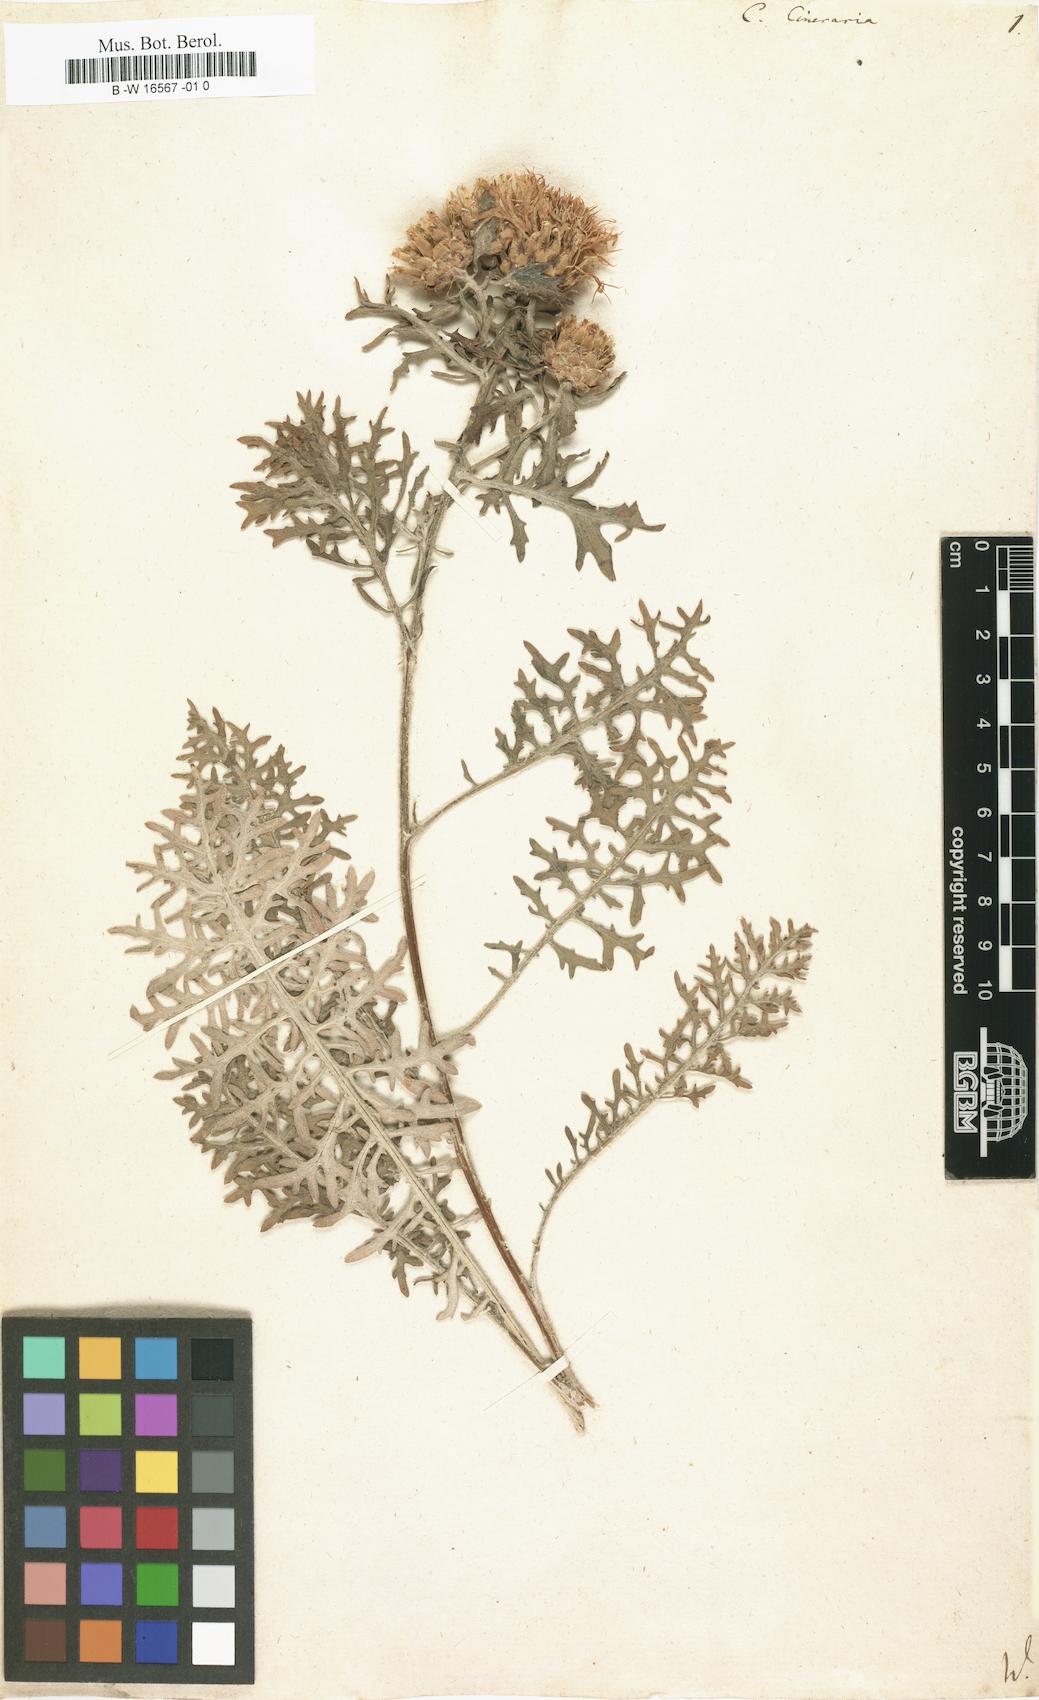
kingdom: Plantae
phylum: Tracheophyta
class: Magnoliopsida
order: Asterales
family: Asteraceae
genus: Centaurea
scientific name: Centaurea cineraria
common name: Dusty miller
